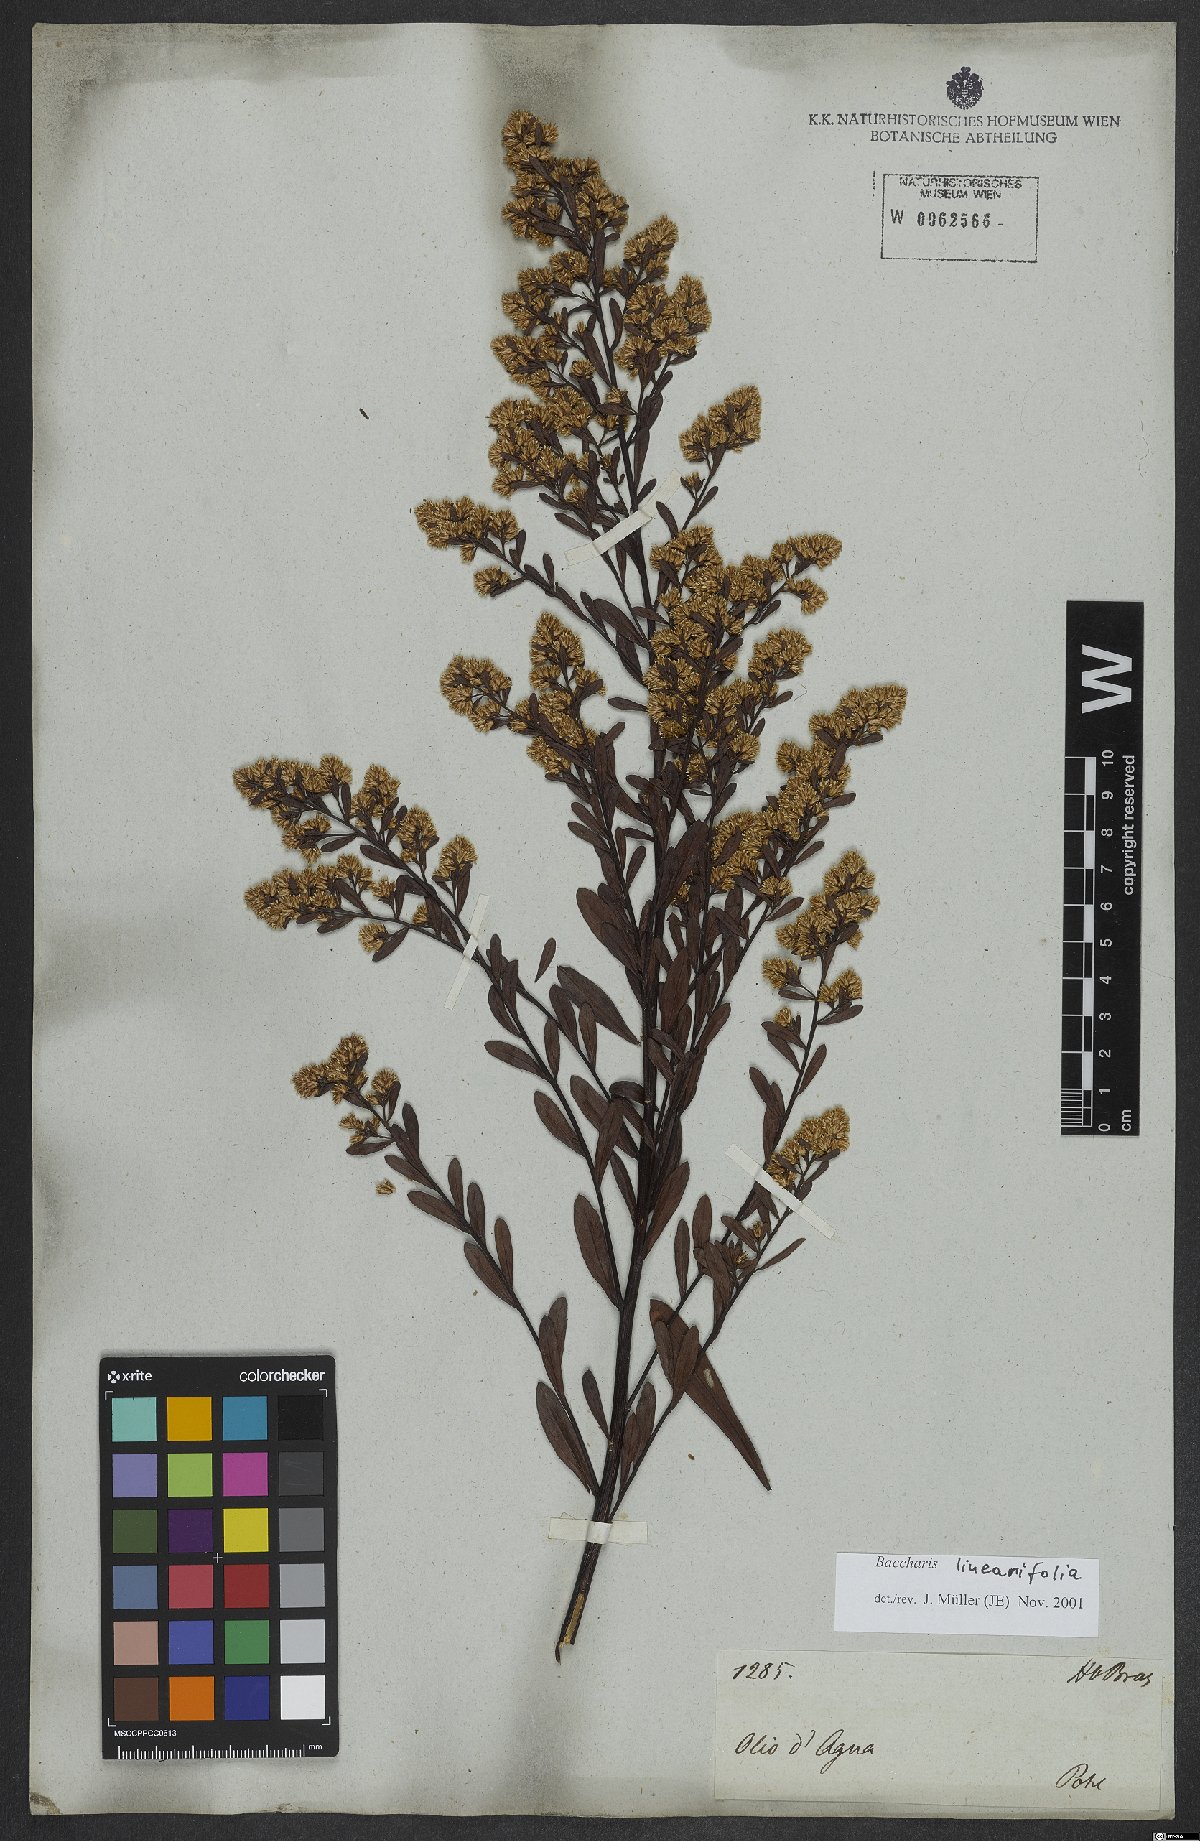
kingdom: Plantae
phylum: Tracheophyta
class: Magnoliopsida
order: Asterales
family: Asteraceae
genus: Baccharis
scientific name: Baccharis linearifolia
